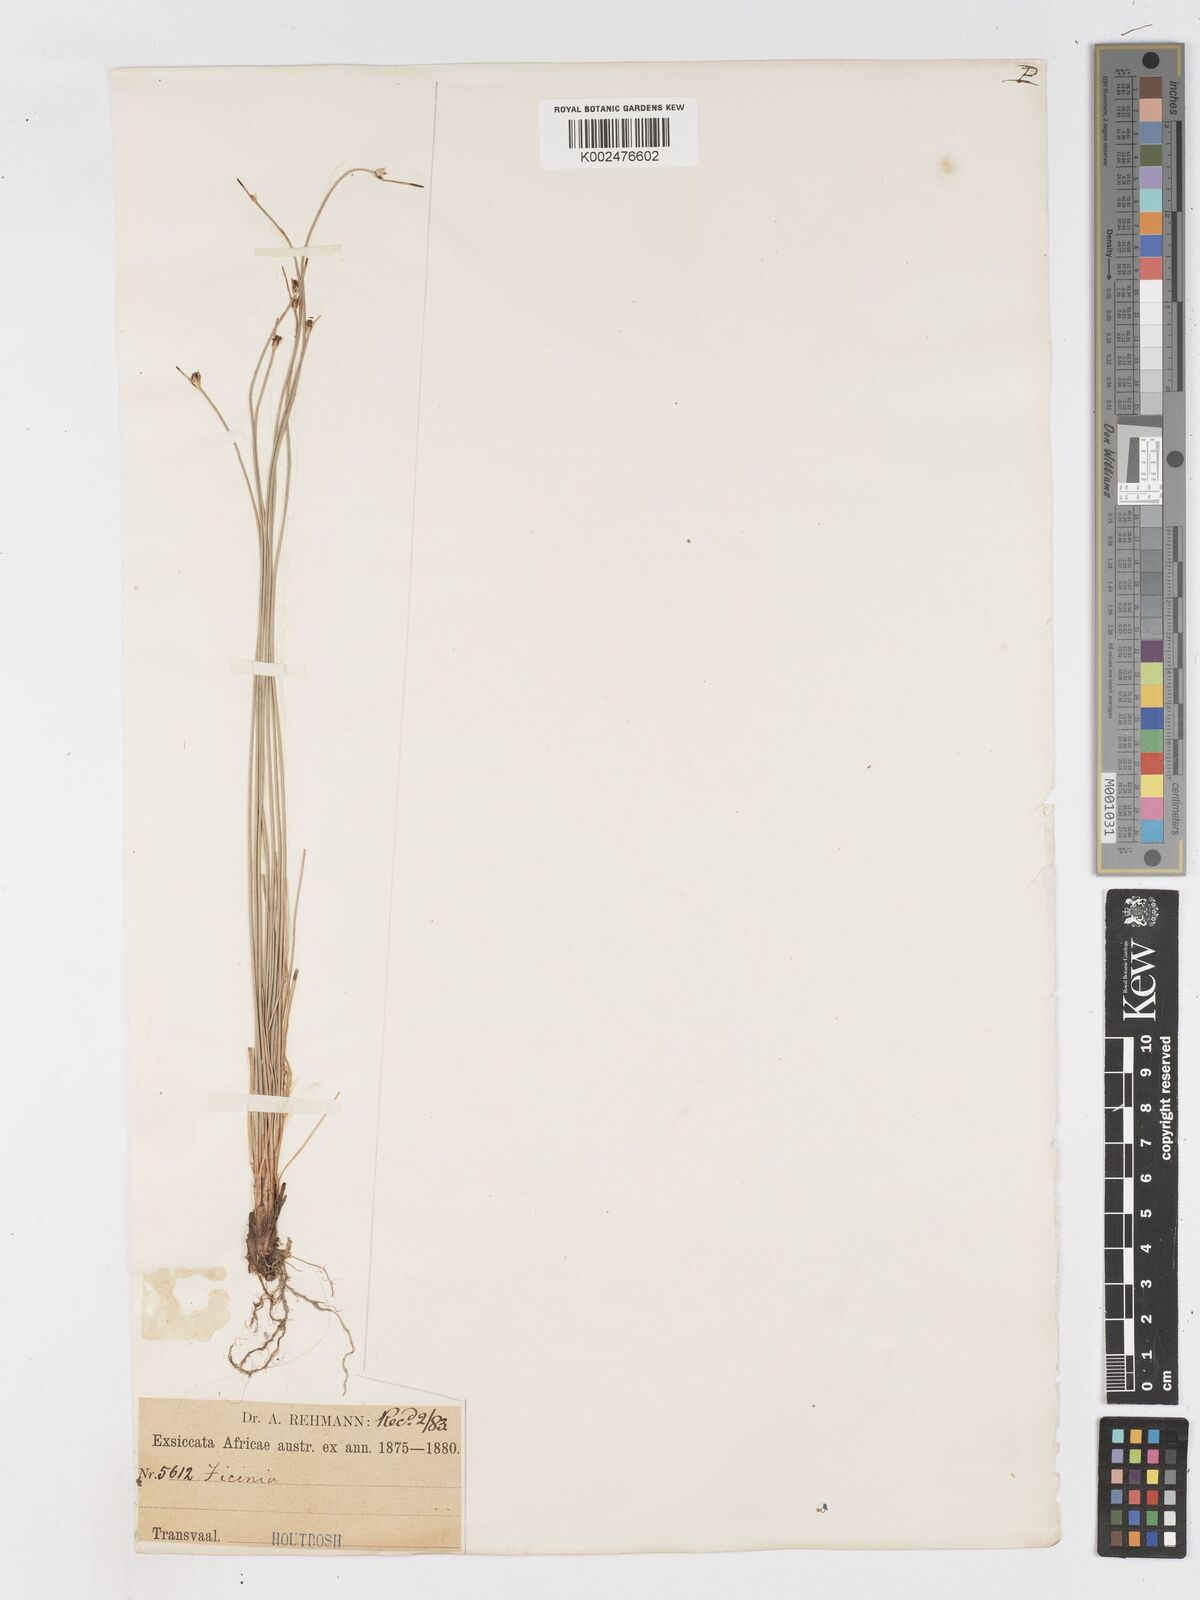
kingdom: Plantae
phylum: Tracheophyta
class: Liliopsida
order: Poales
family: Cyperaceae
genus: Ficinia
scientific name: Ficinia
